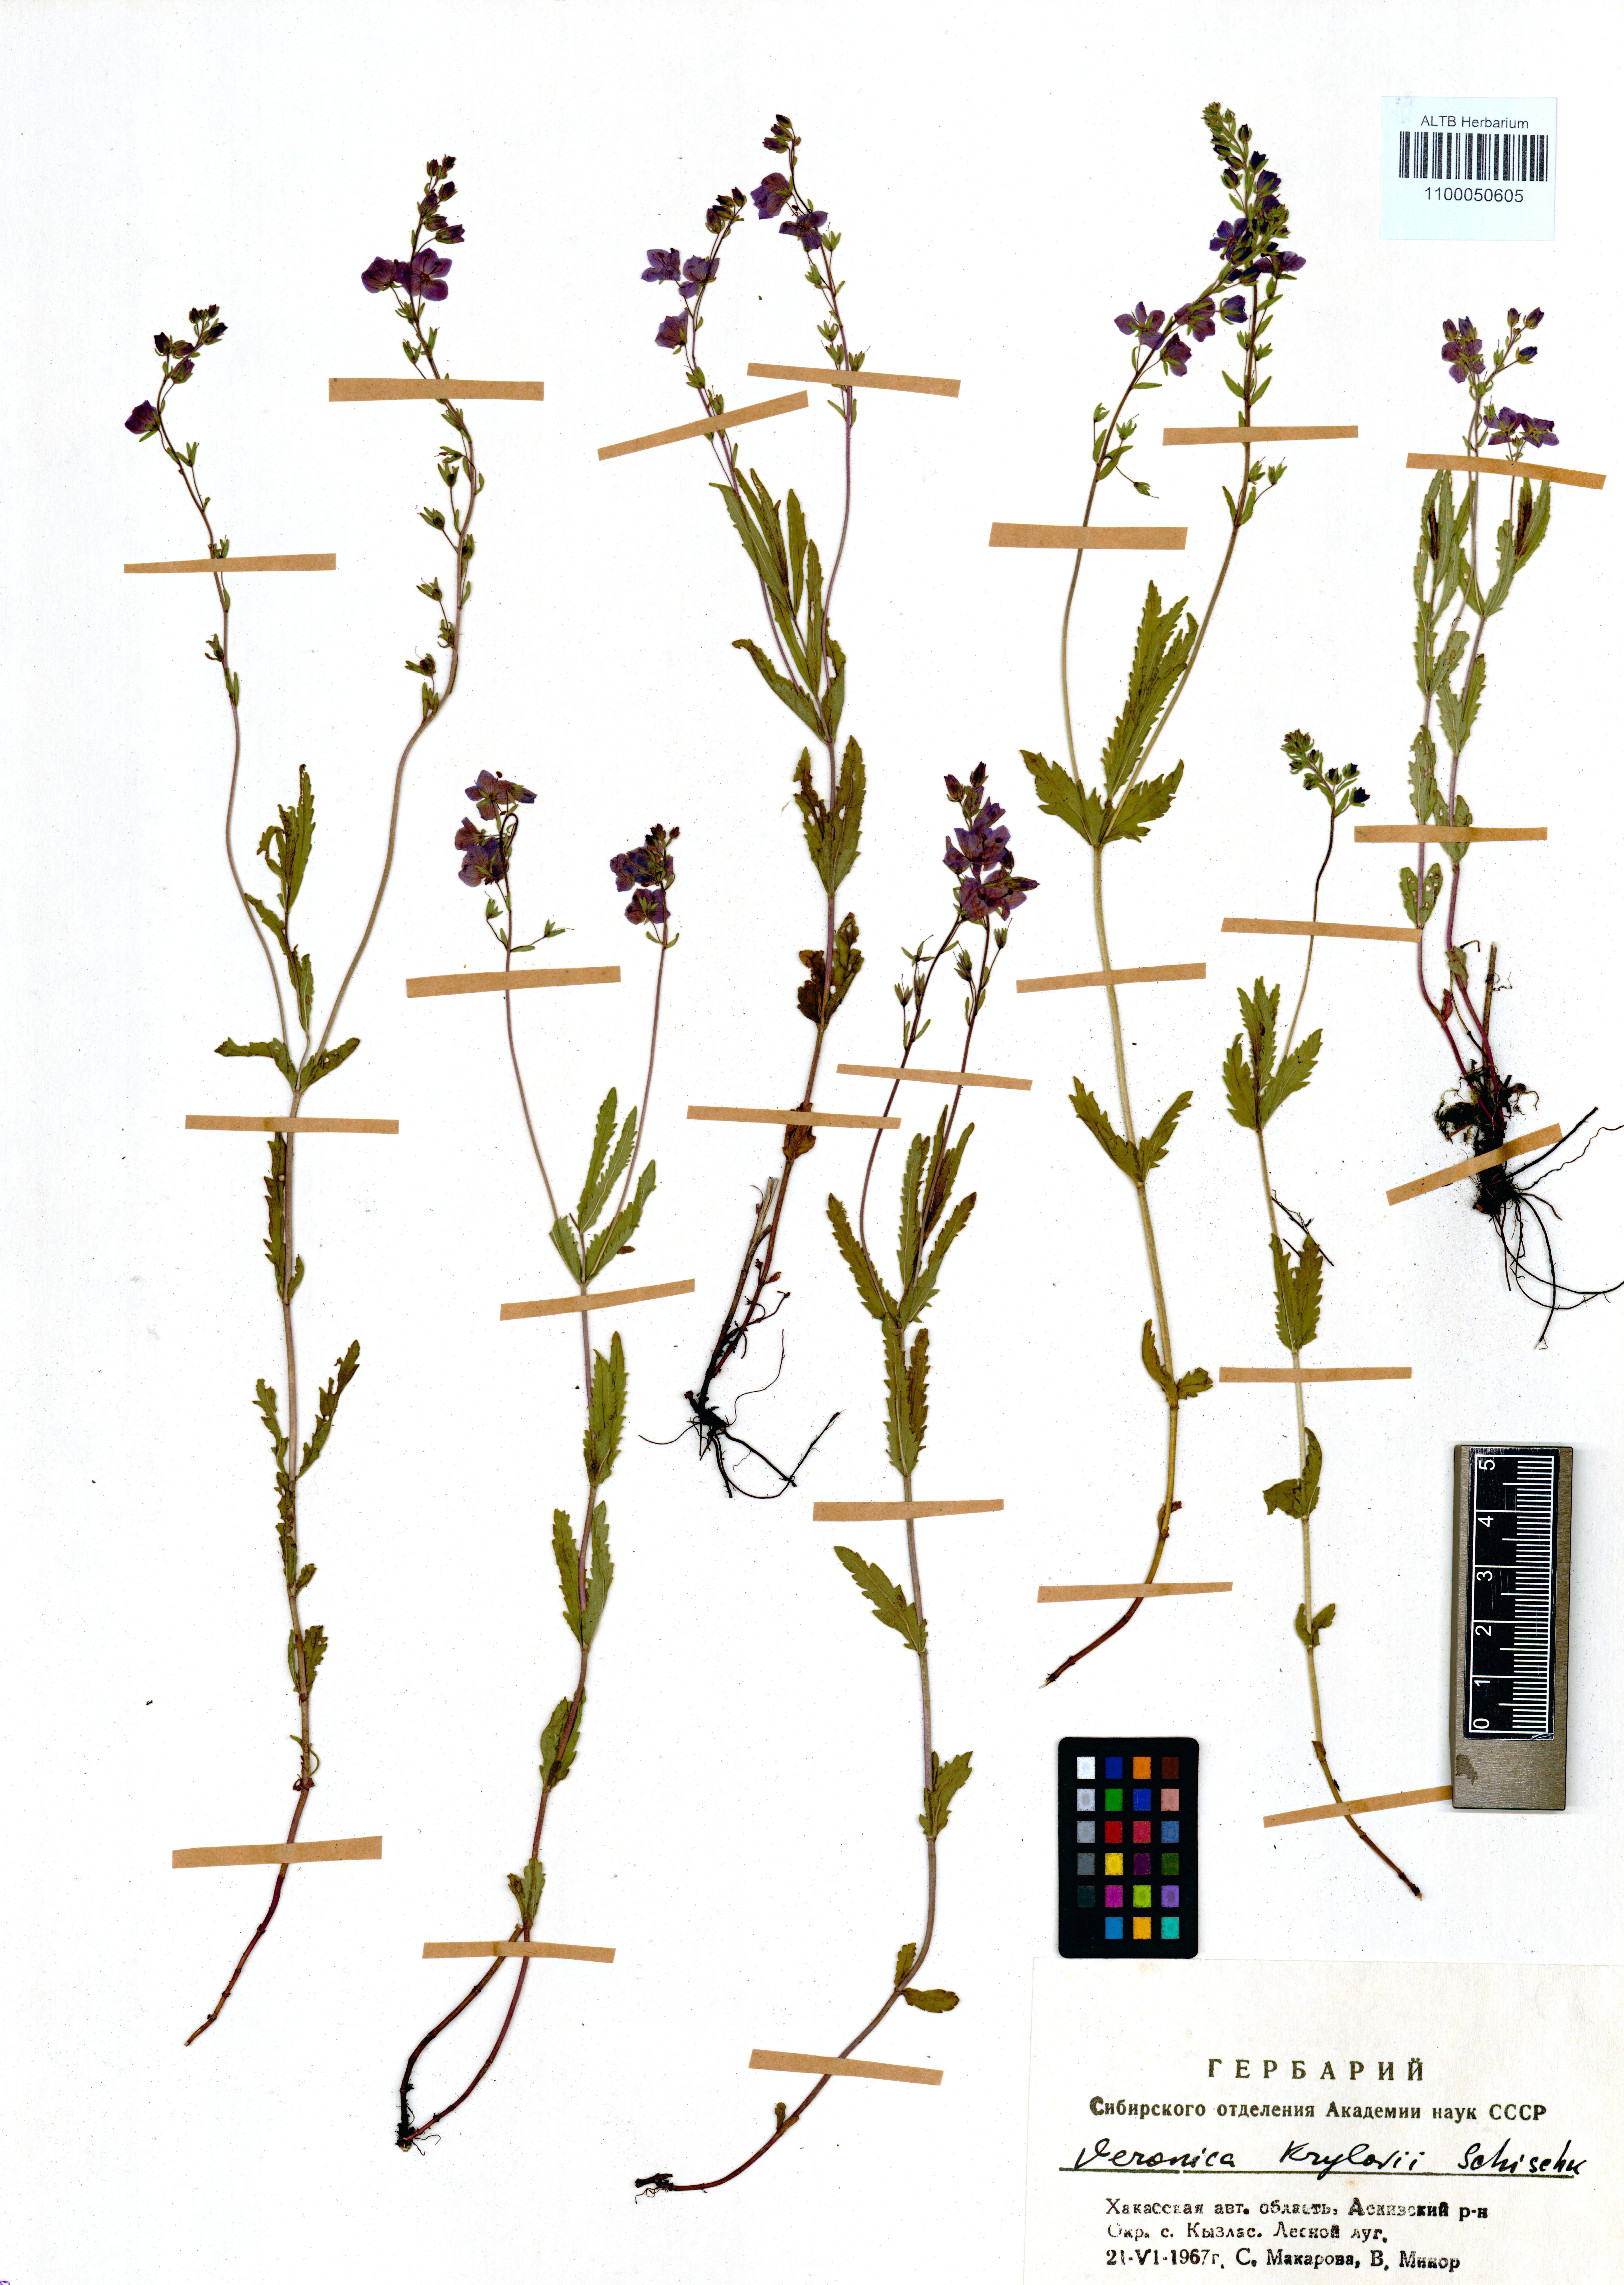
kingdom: Plantae
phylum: Tracheophyta
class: Magnoliopsida
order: Lamiales
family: Plantaginaceae
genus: Veronica
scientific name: Veronica krylovii
